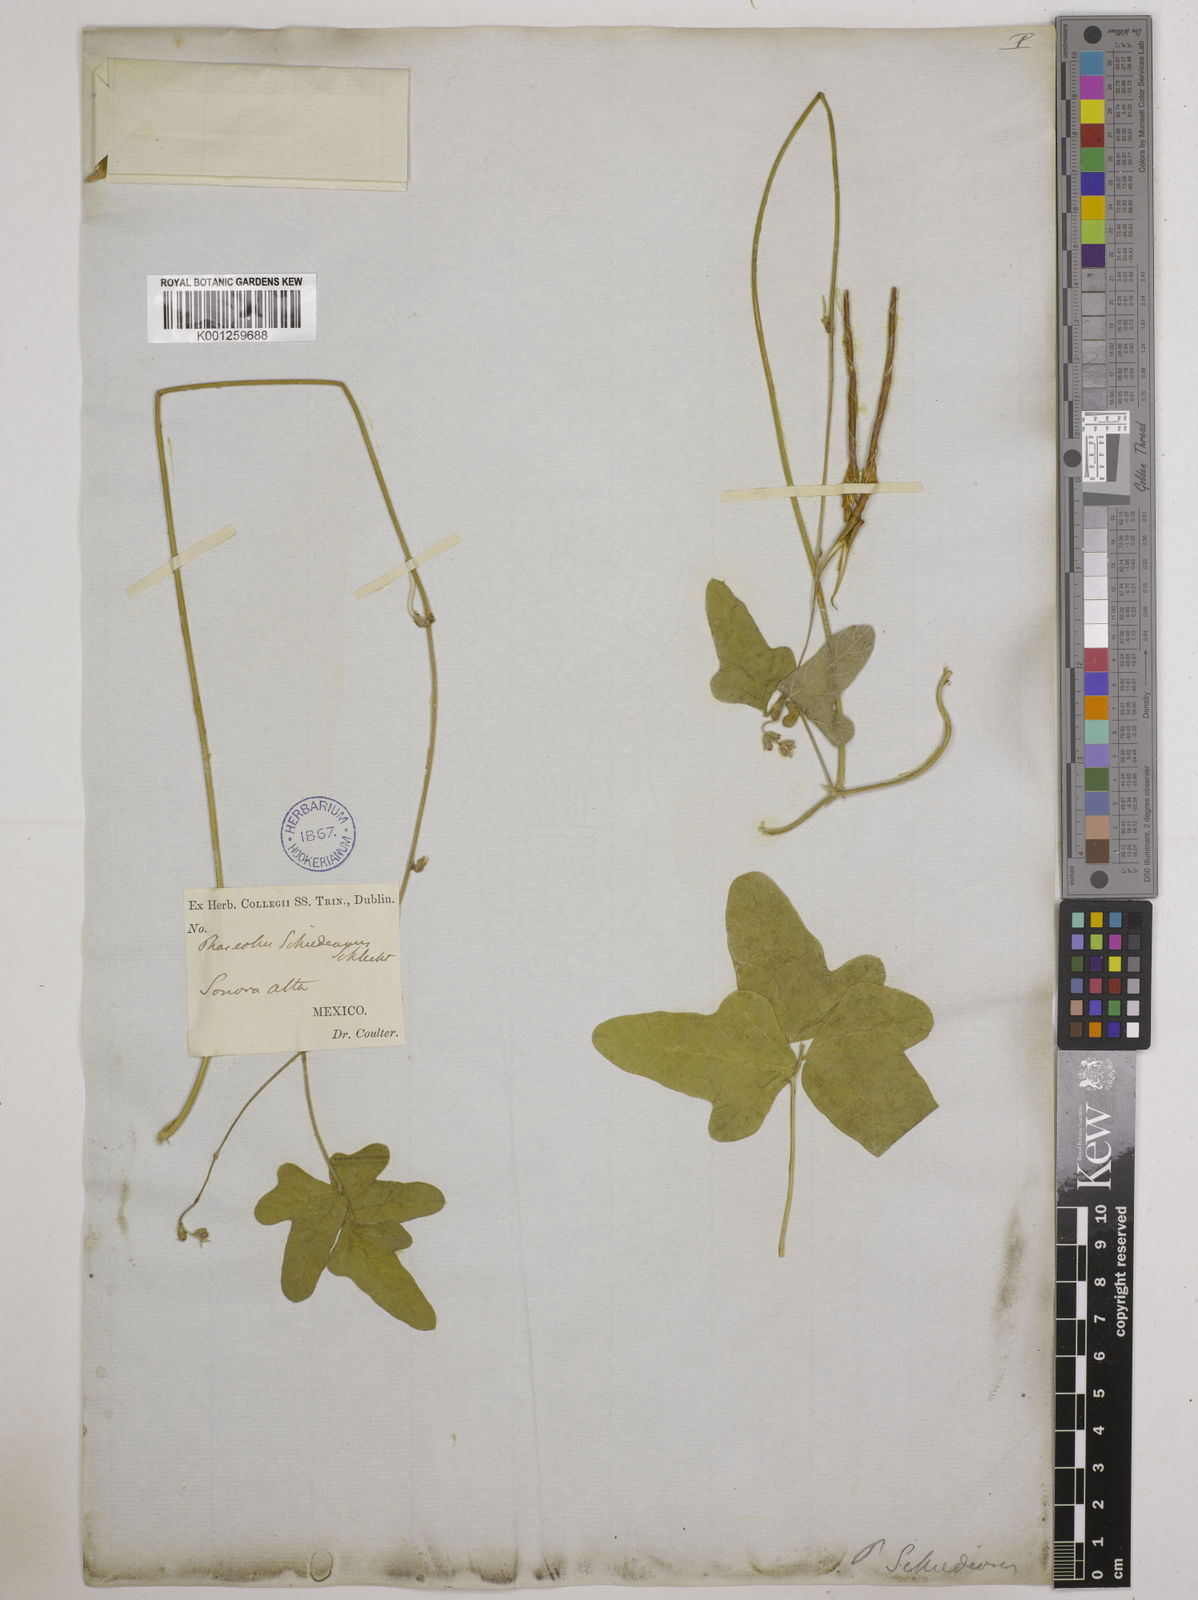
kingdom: Plantae
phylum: Tracheophyta
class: Magnoliopsida
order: Fabales
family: Fabaceae
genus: Macroptilium
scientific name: Macroptilium atropurpureum
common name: Purple bushbean
